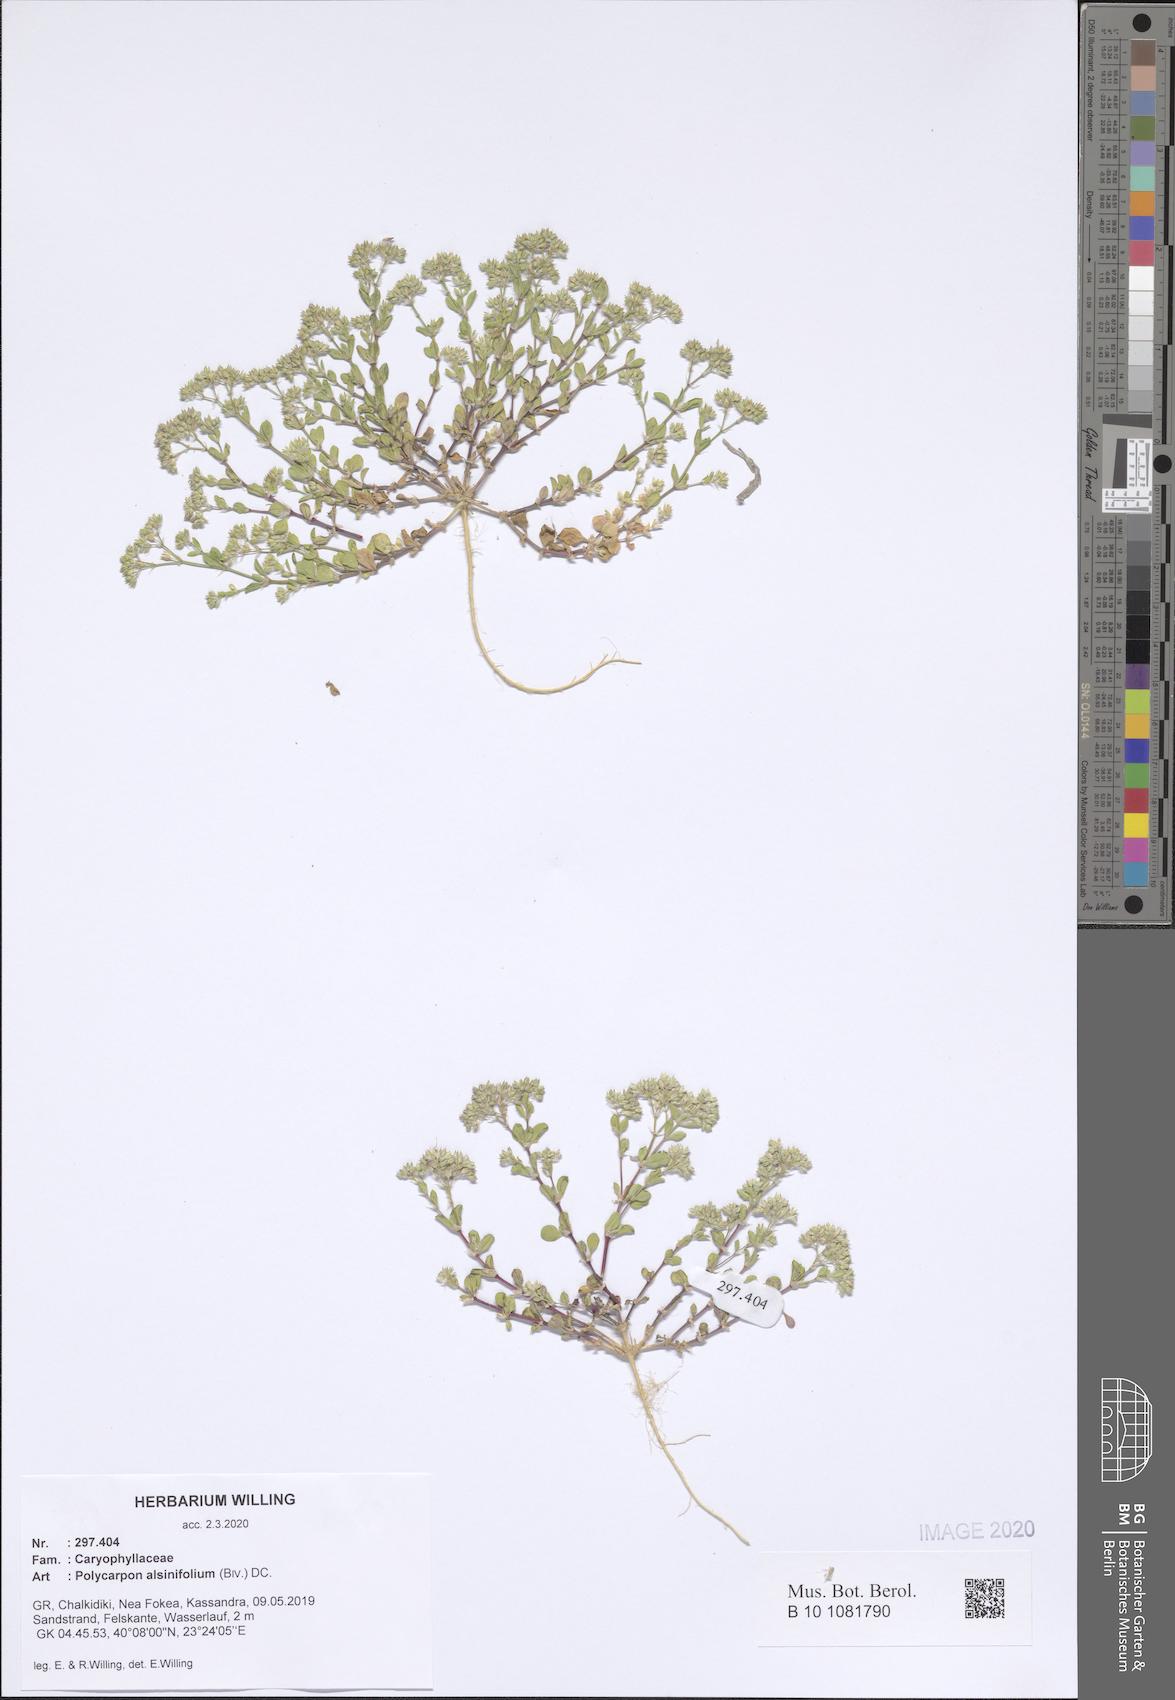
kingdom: Plantae
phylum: Tracheophyta
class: Magnoliopsida
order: Caryophyllales
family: Caryophyllaceae
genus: Polycarpon
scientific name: Polycarpon alsinifolium
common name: Fourleaf manyseed
